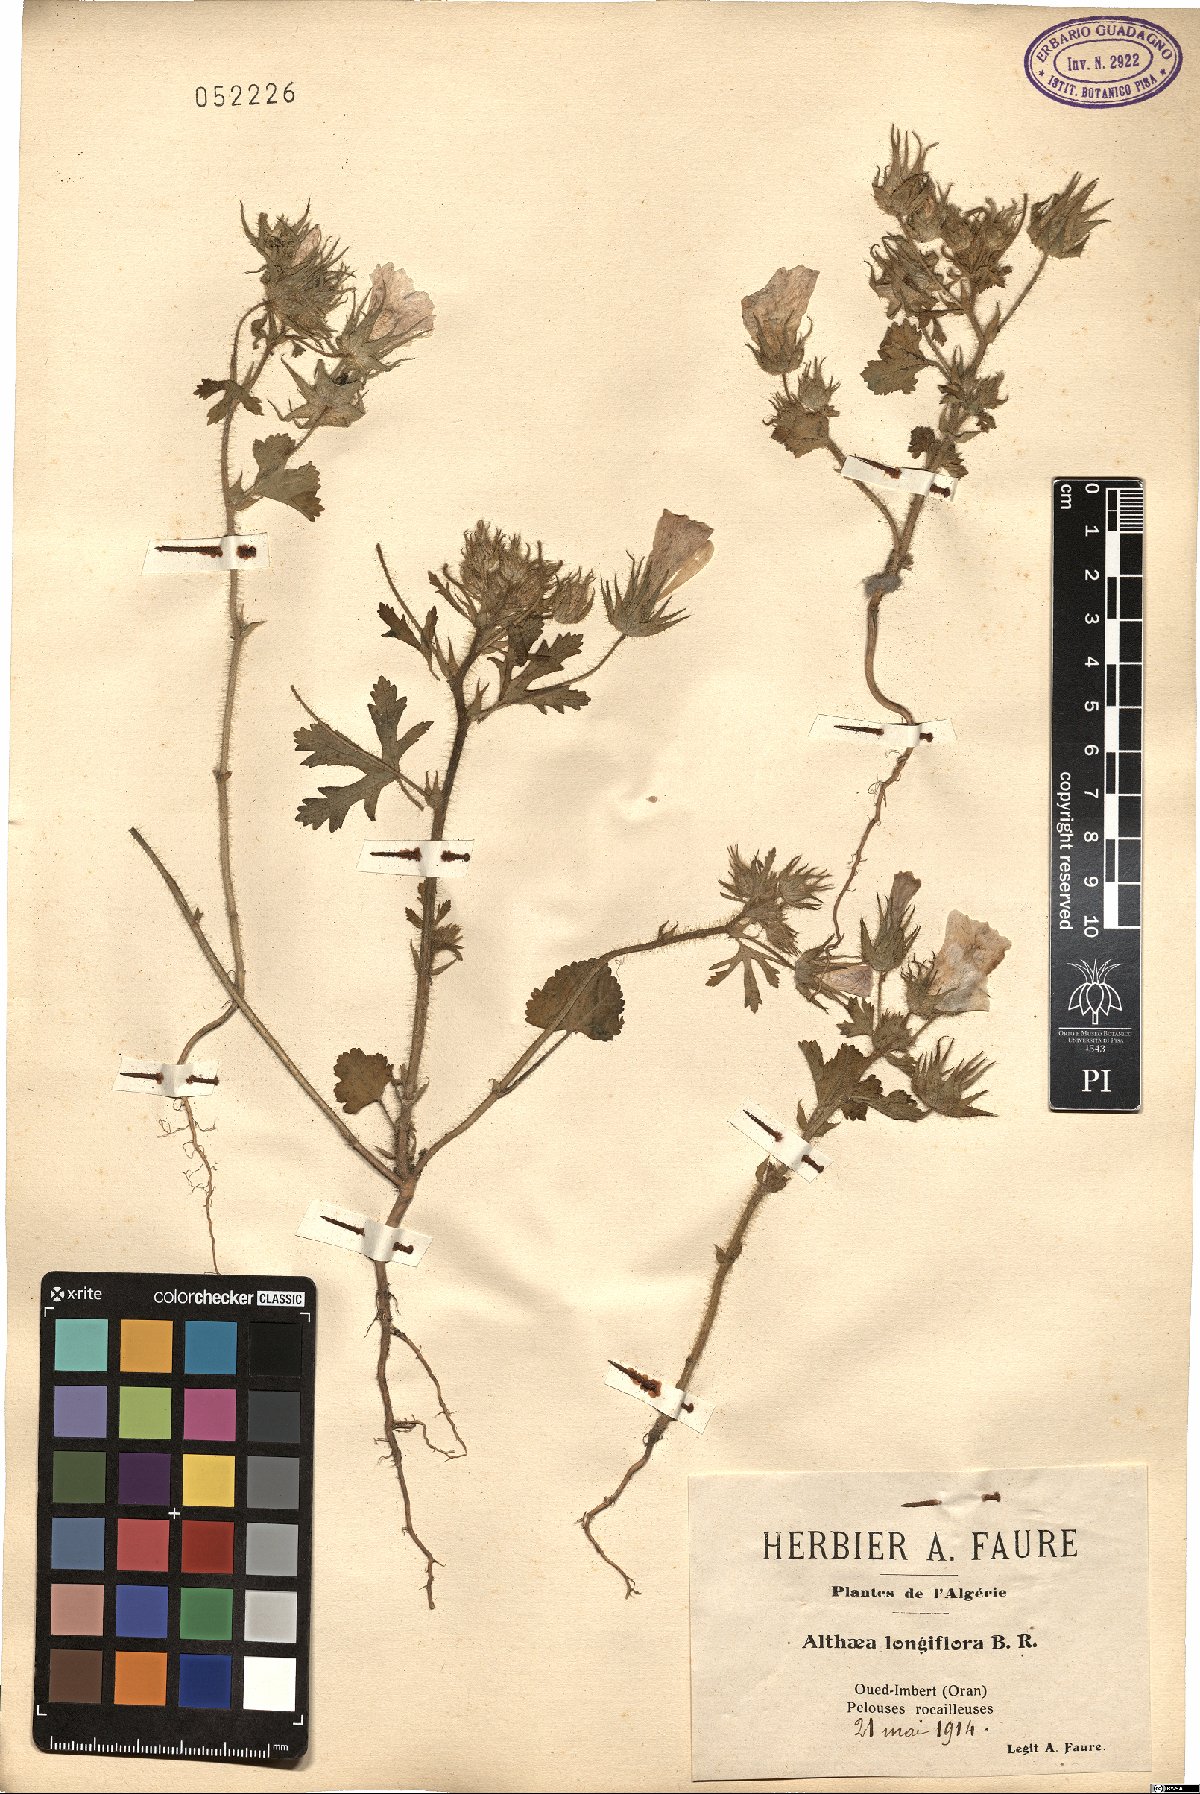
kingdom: Plantae
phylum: Tracheophyta
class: Magnoliopsida
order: Malvales
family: Malvaceae
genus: Malva
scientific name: Malva longiflora
